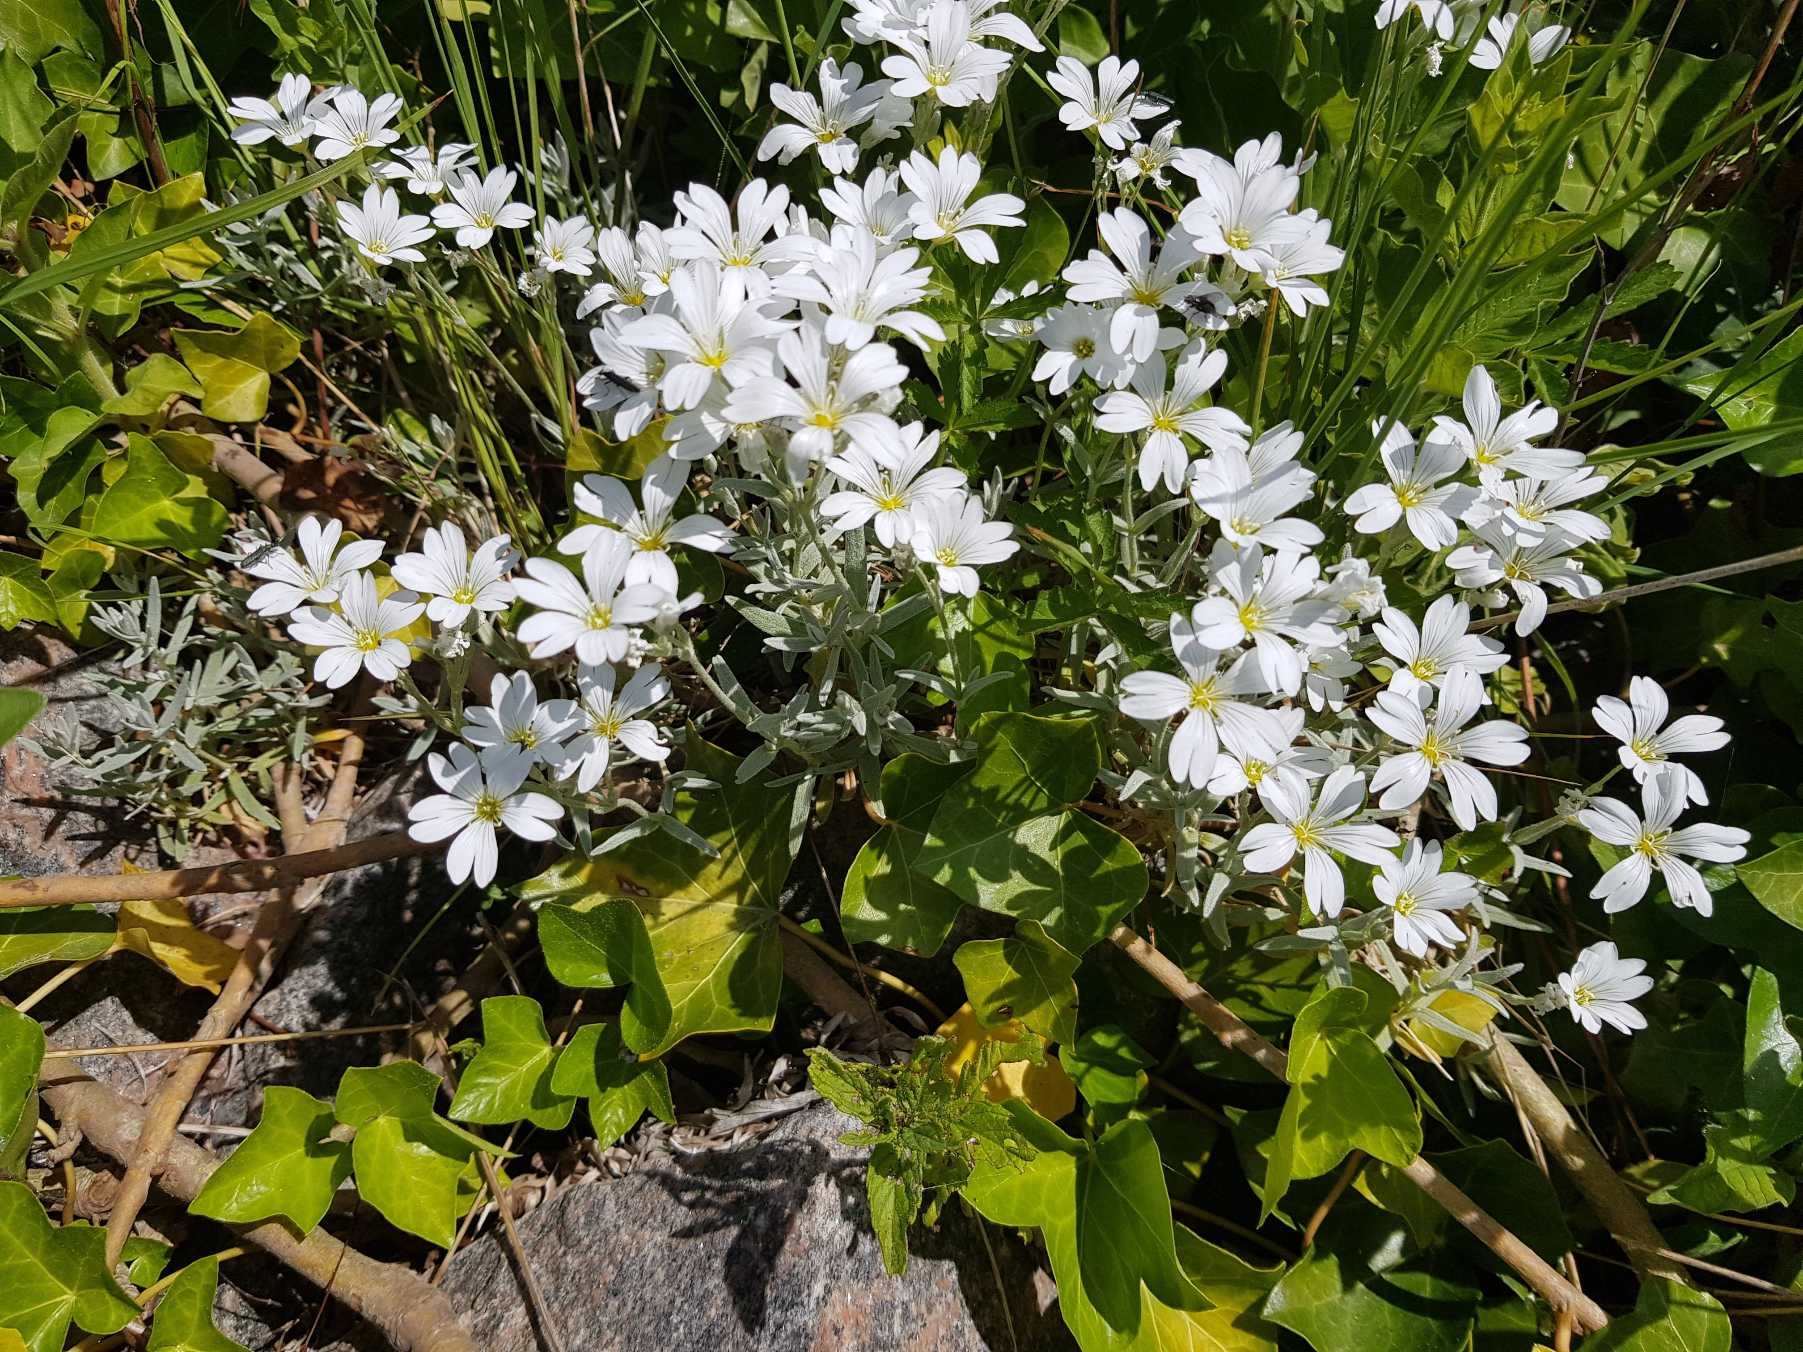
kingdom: Plantae
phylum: Tracheophyta
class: Magnoliopsida
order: Caryophyllales
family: Caryophyllaceae
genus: Cerastium
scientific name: Cerastium tomentosum
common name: Filtet hønsetarm
